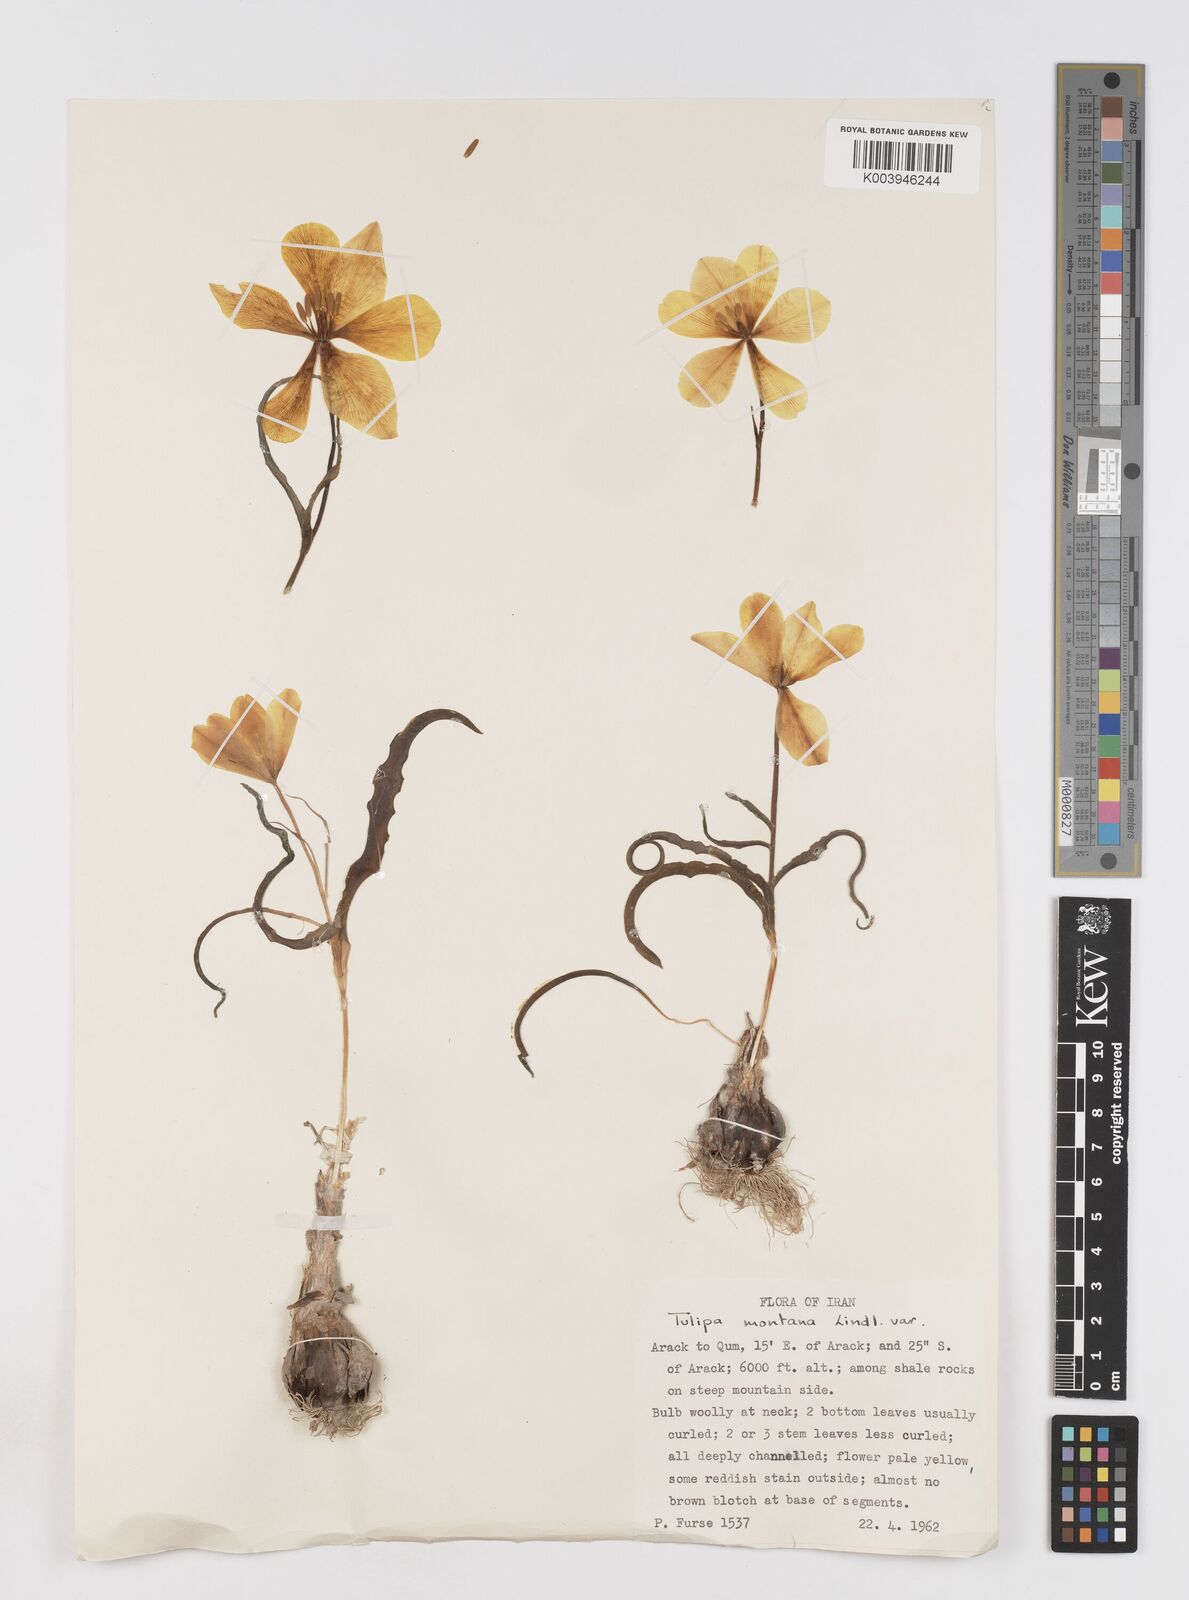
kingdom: Plantae
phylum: Tracheophyta
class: Liliopsida
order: Liliales
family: Liliaceae
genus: Tulipa
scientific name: Tulipa montana
